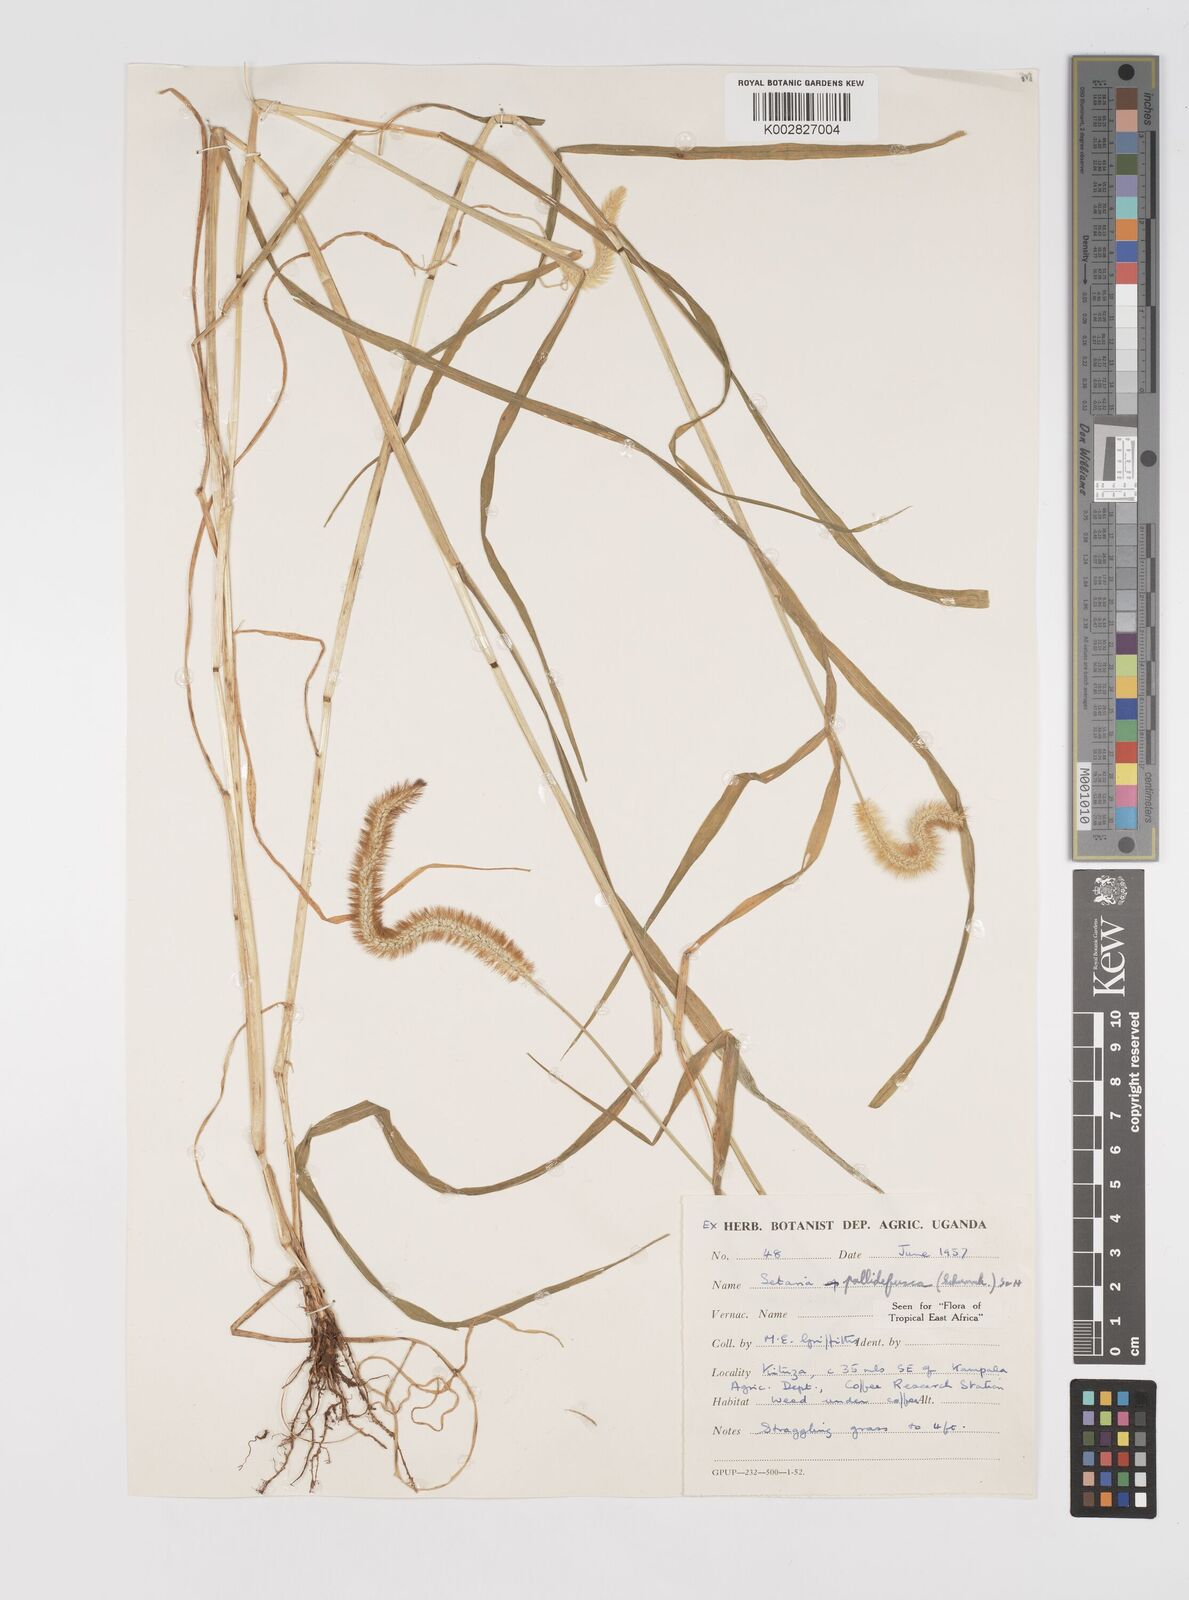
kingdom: Plantae
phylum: Tracheophyta
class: Liliopsida
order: Poales
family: Poaceae
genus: Setaria
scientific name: Setaria pumila
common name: Yellow bristle-grass
